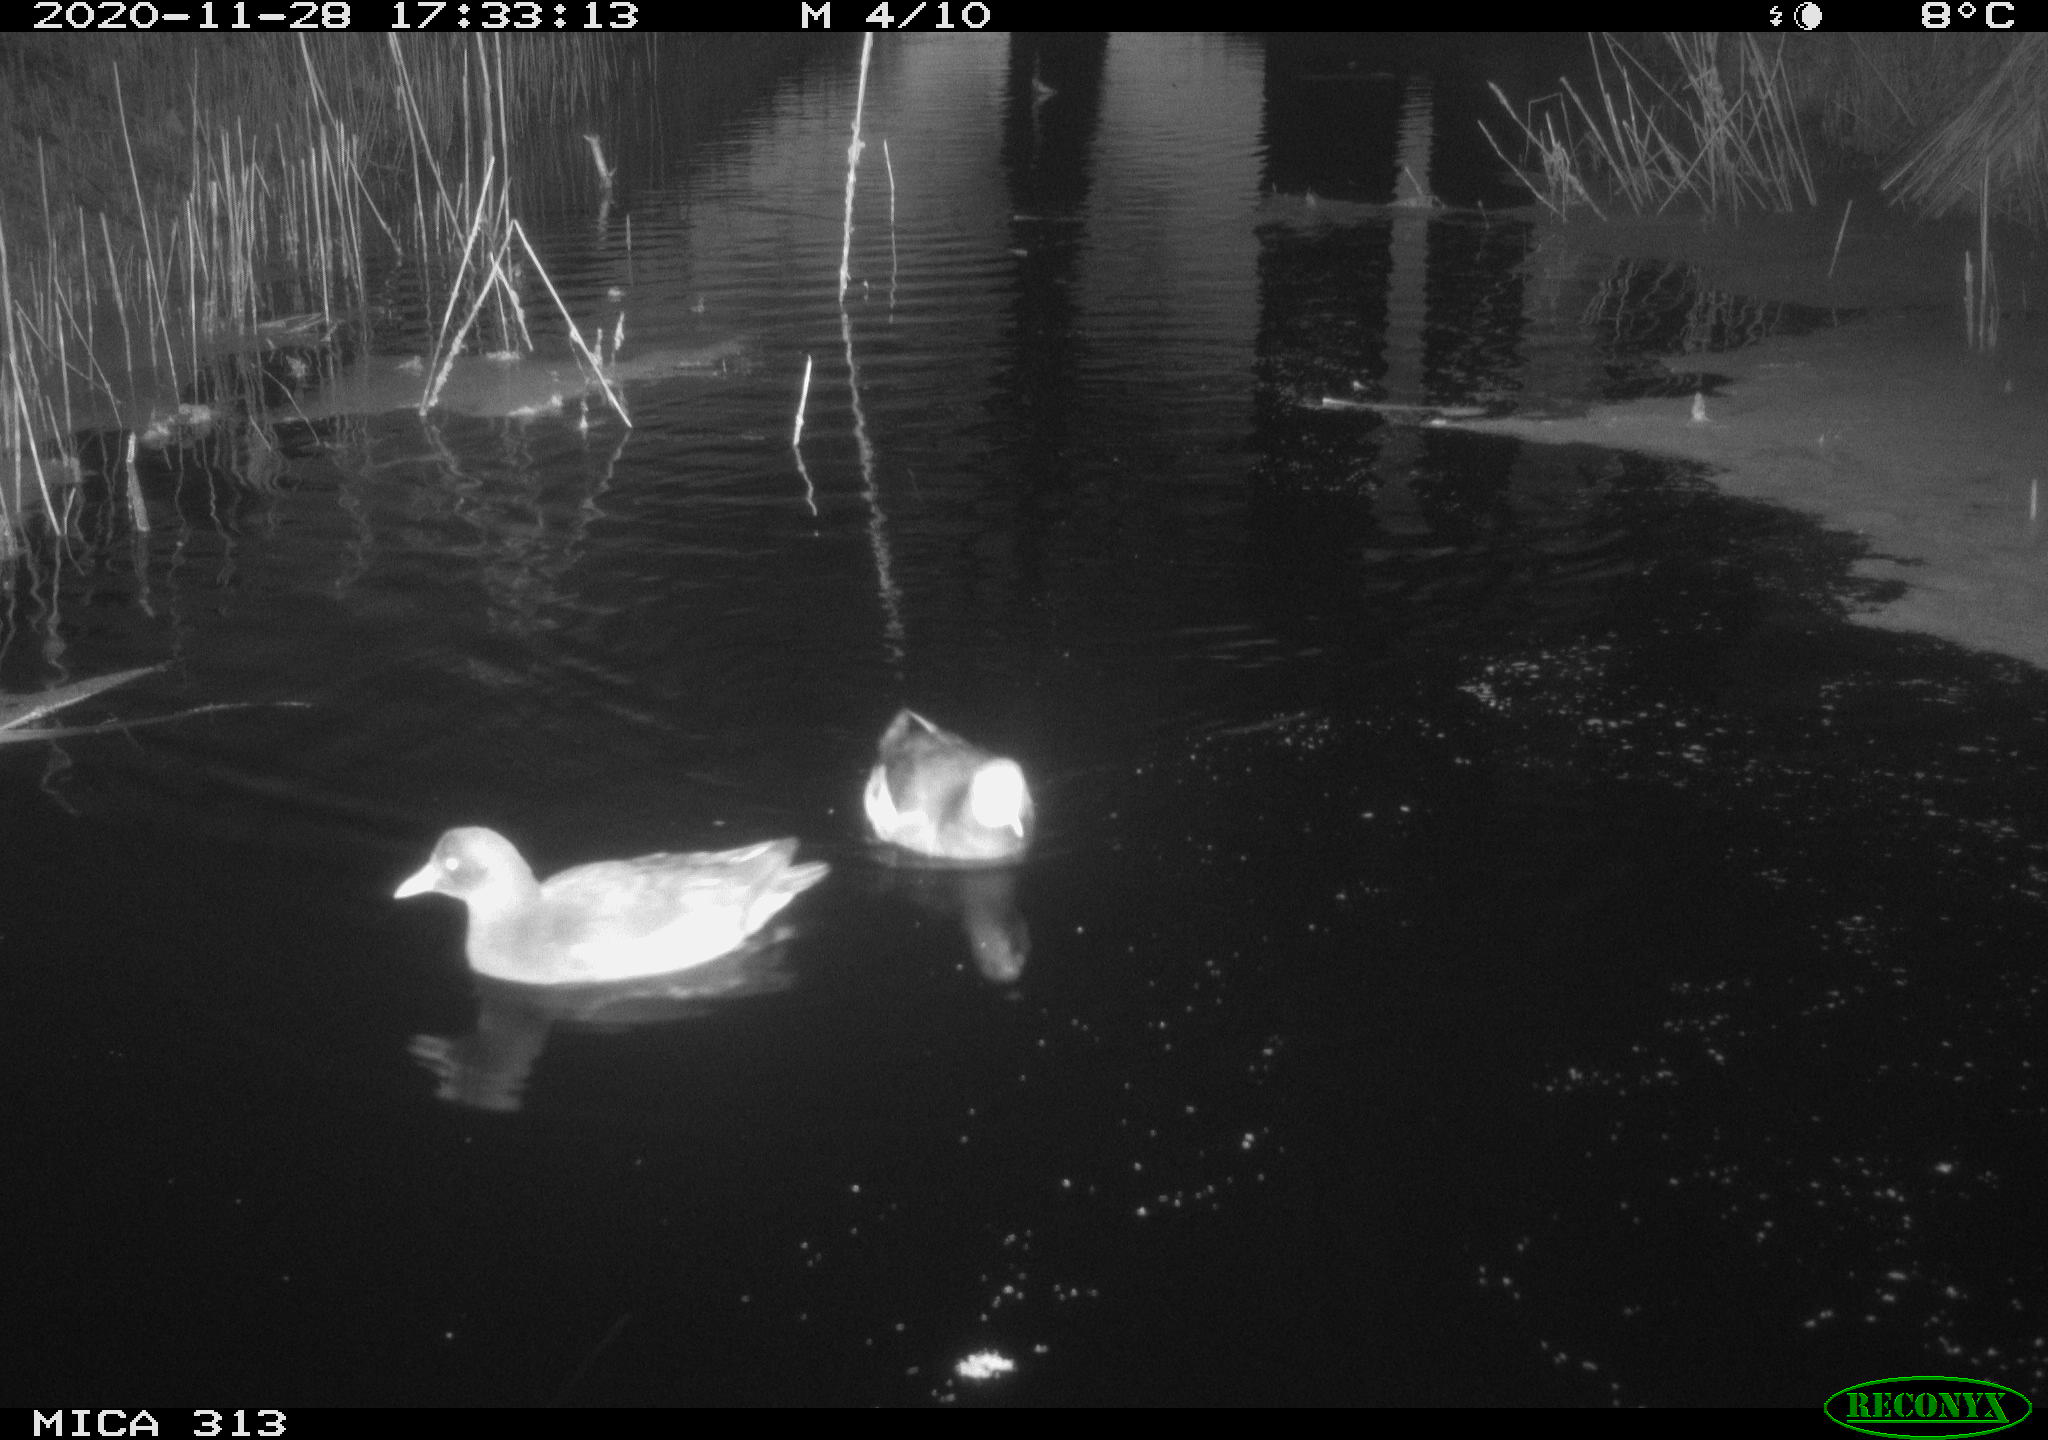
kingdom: Animalia
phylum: Chordata
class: Aves
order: Gruiformes
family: Rallidae
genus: Gallinula
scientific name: Gallinula chloropus
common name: Common moorhen
